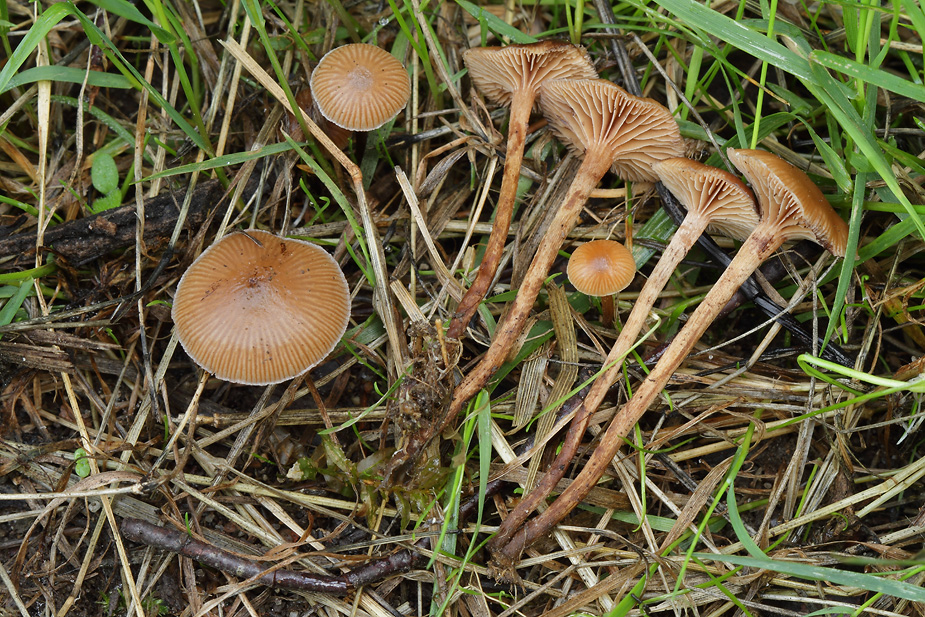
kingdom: Fungi
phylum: Basidiomycota
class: Agaricomycetes
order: Agaricales
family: Strophariaceae
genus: Deconica
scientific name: Deconica inquilina
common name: græs-stråhat
